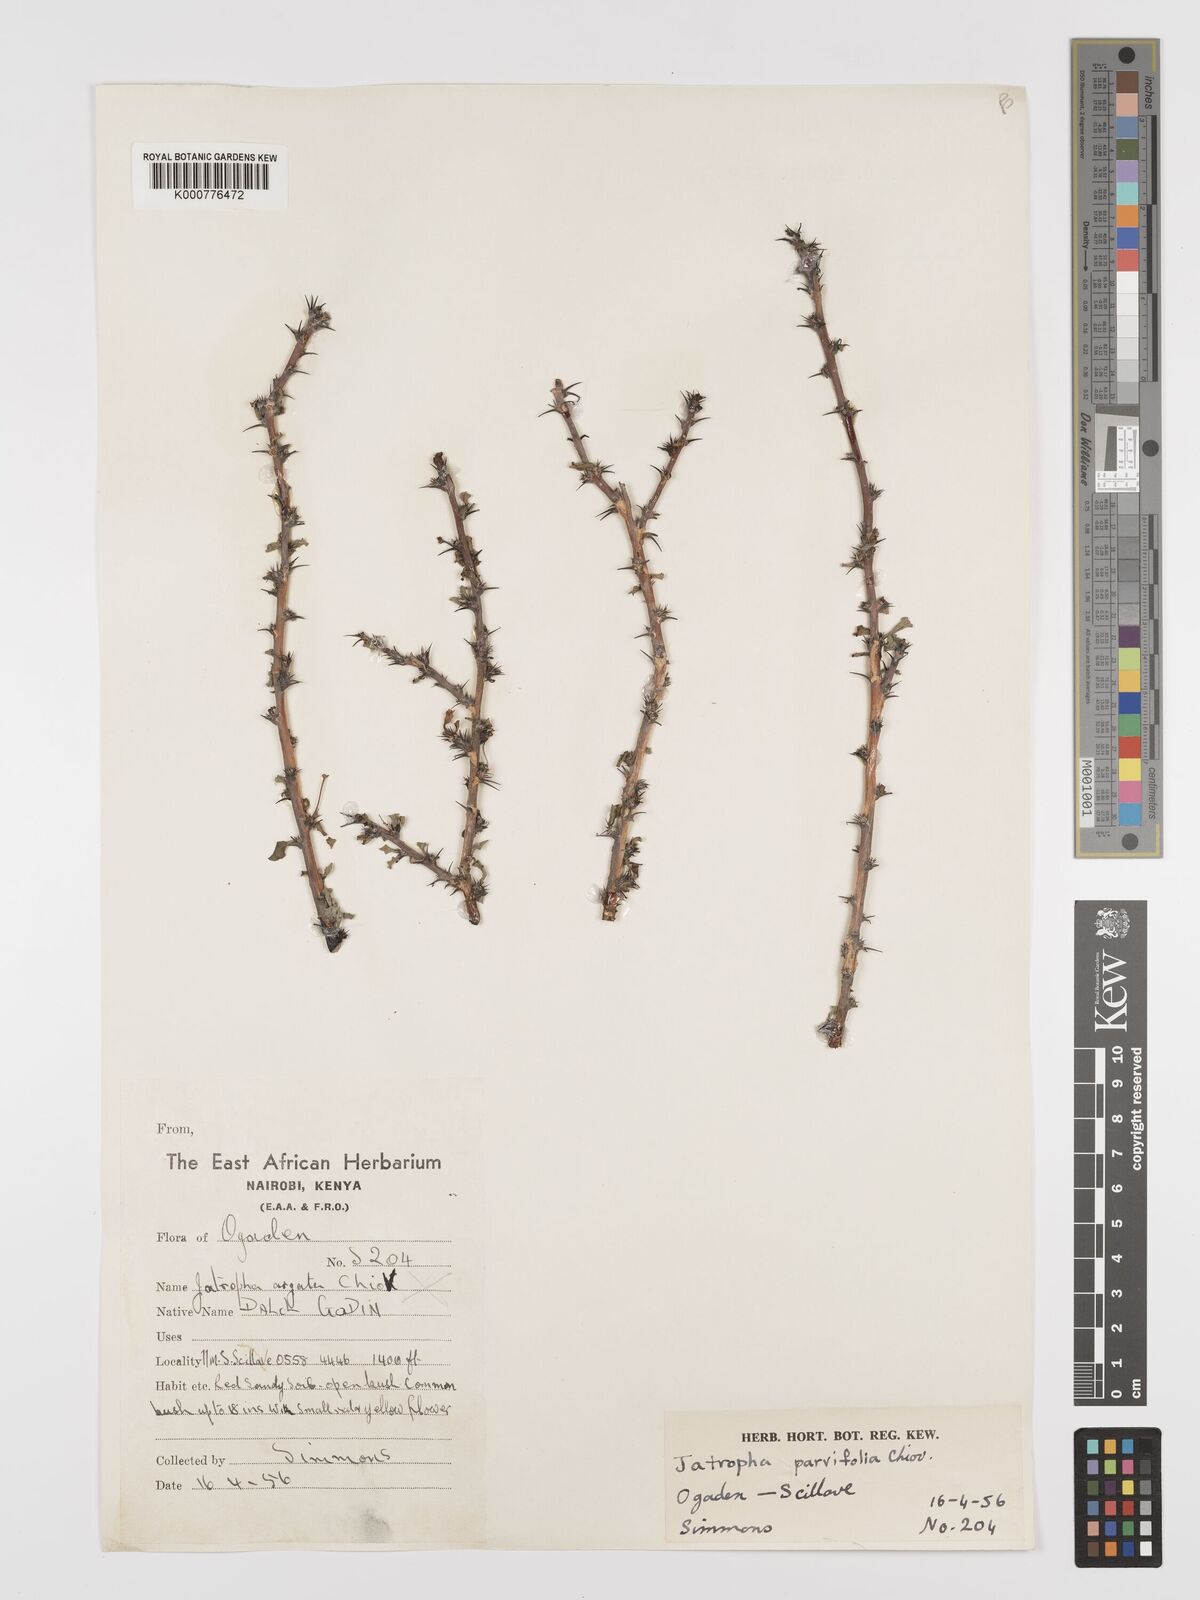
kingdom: Plantae
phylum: Tracheophyta
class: Magnoliopsida
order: Malpighiales
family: Euphorbiaceae
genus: Jatropha
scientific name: Jatropha rivae
